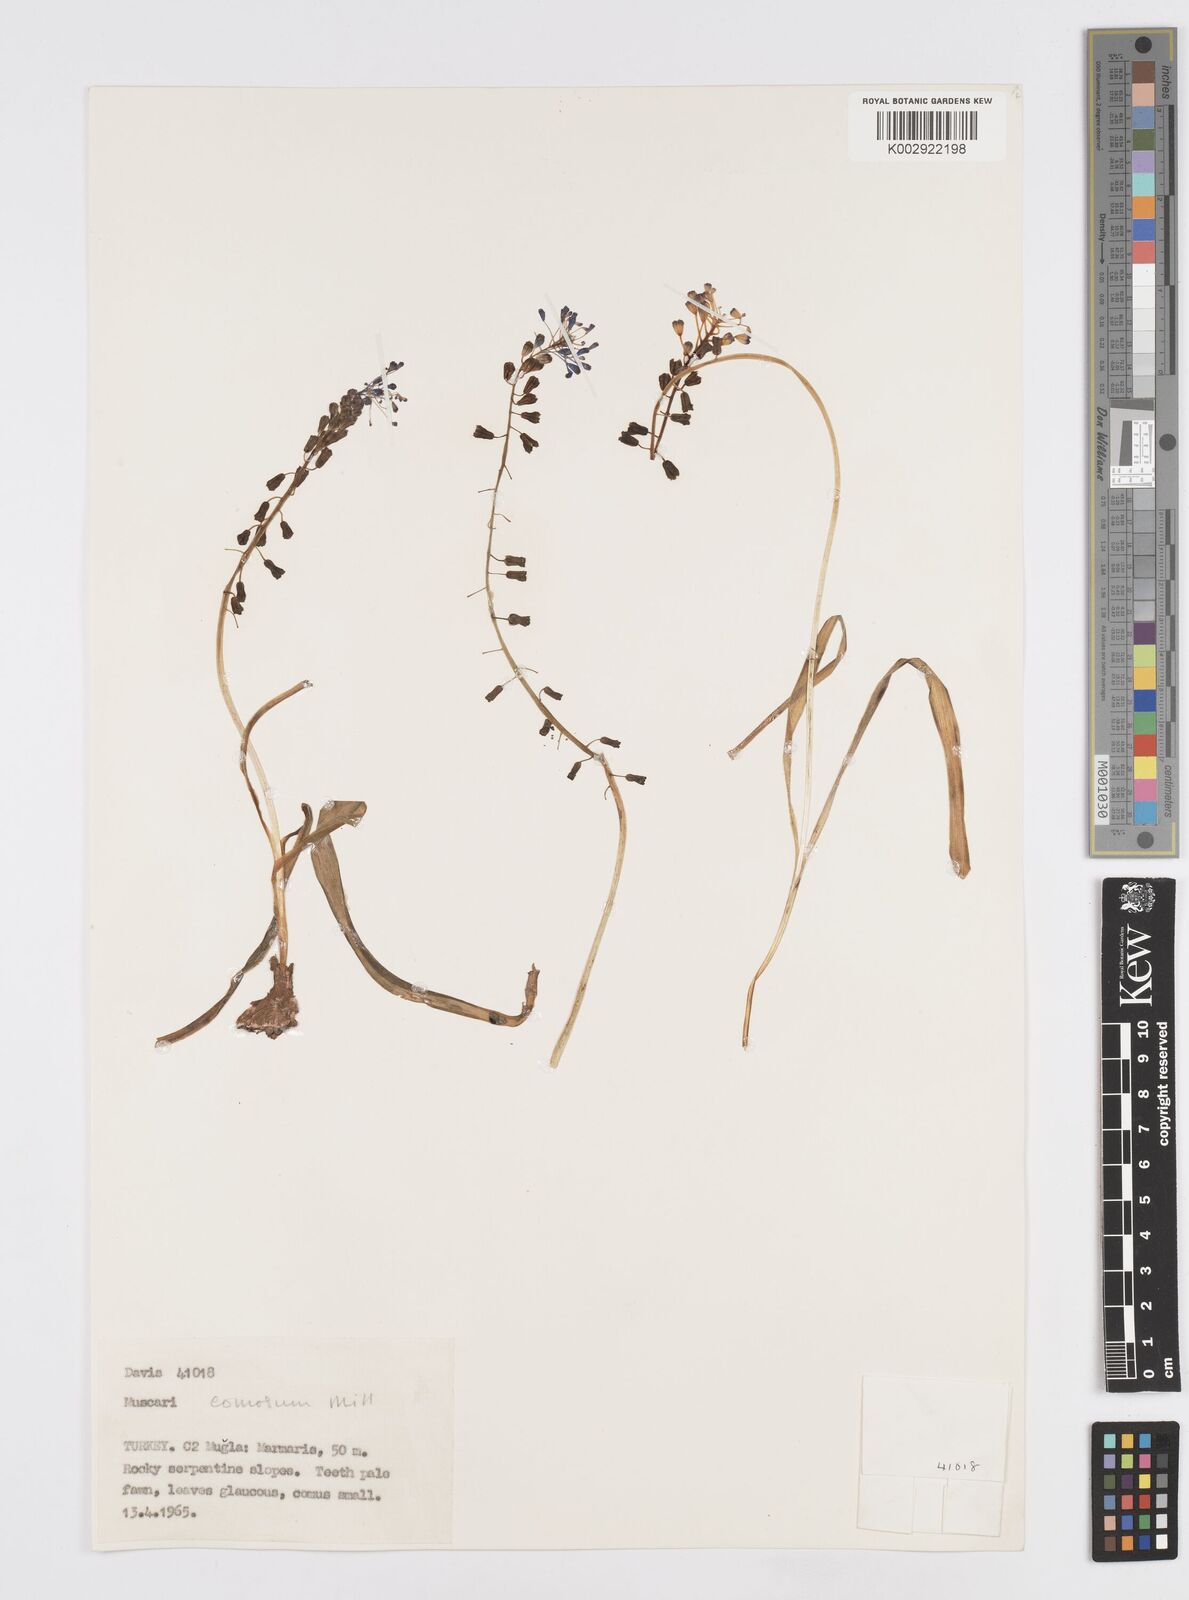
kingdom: Plantae
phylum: Tracheophyta
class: Liliopsida
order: Asparagales
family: Asparagaceae
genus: Muscari
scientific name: Muscari comosum
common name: Tassel hyacinth
